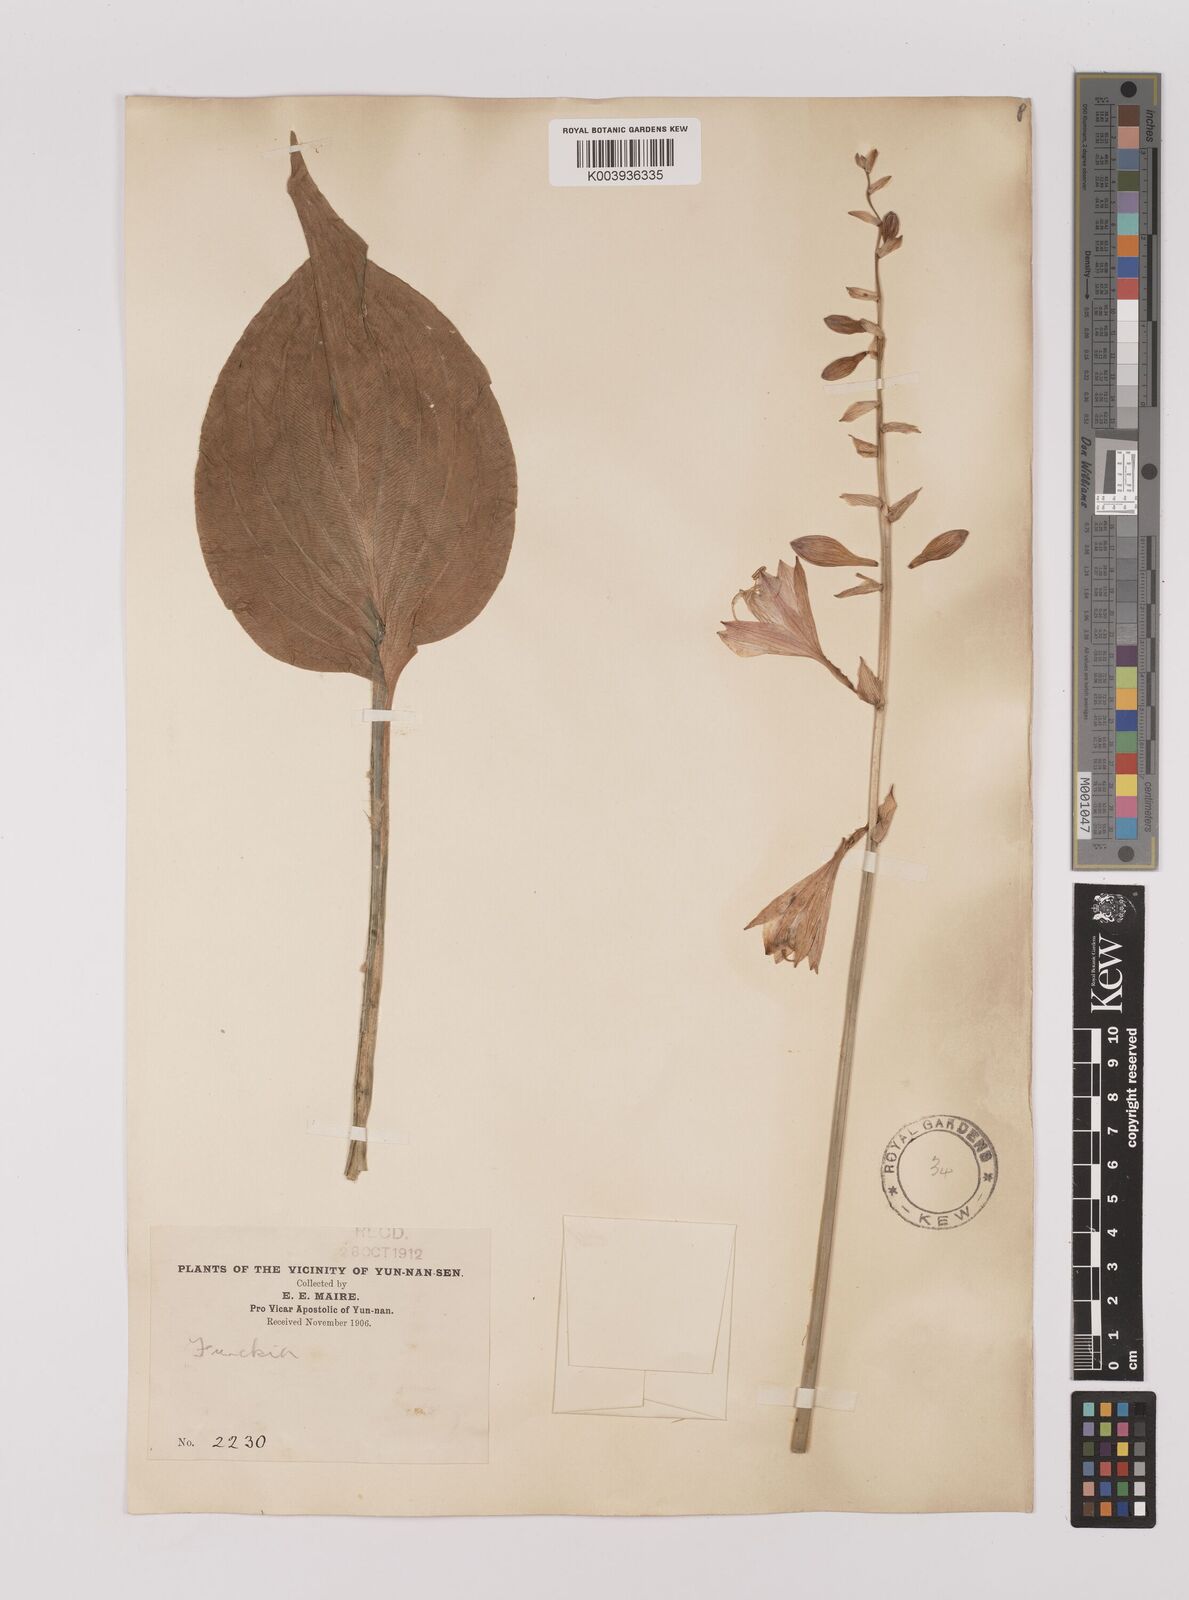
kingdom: Plantae
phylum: Tracheophyta
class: Liliopsida
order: Asparagales
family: Asparagaceae
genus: Hosta
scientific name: Hosta ventricosa
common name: Blue plantain-lily
